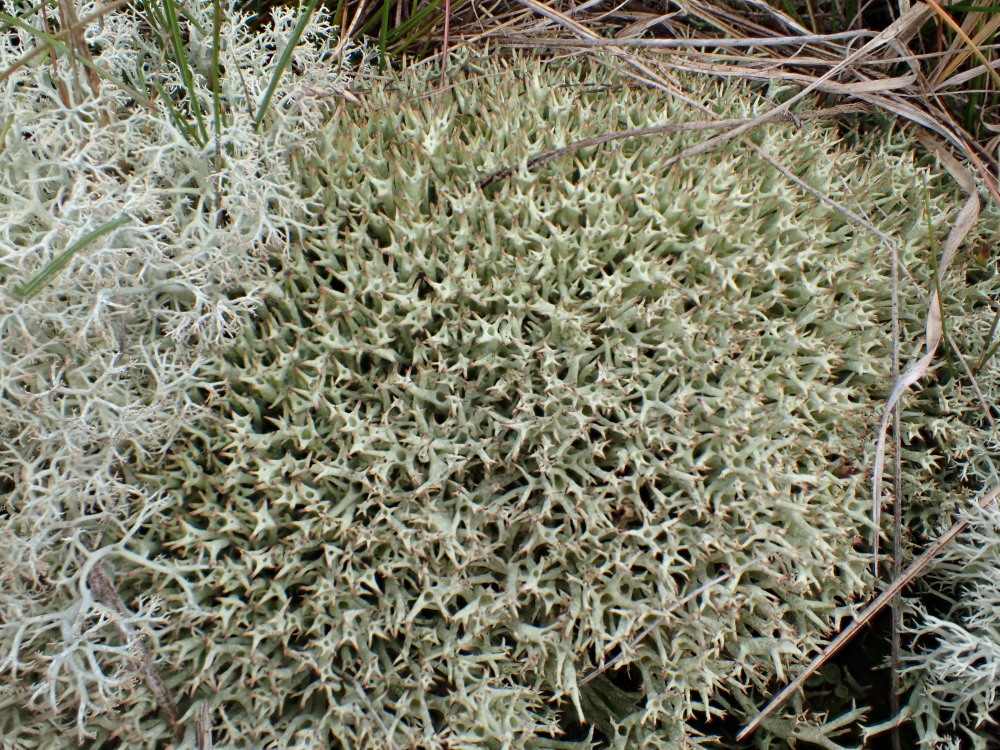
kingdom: Fungi
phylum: Ascomycota
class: Lecanoromycetes
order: Lecanorales
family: Cladoniaceae
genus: Cladonia
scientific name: Cladonia uncialis
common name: pigget bægerlav
